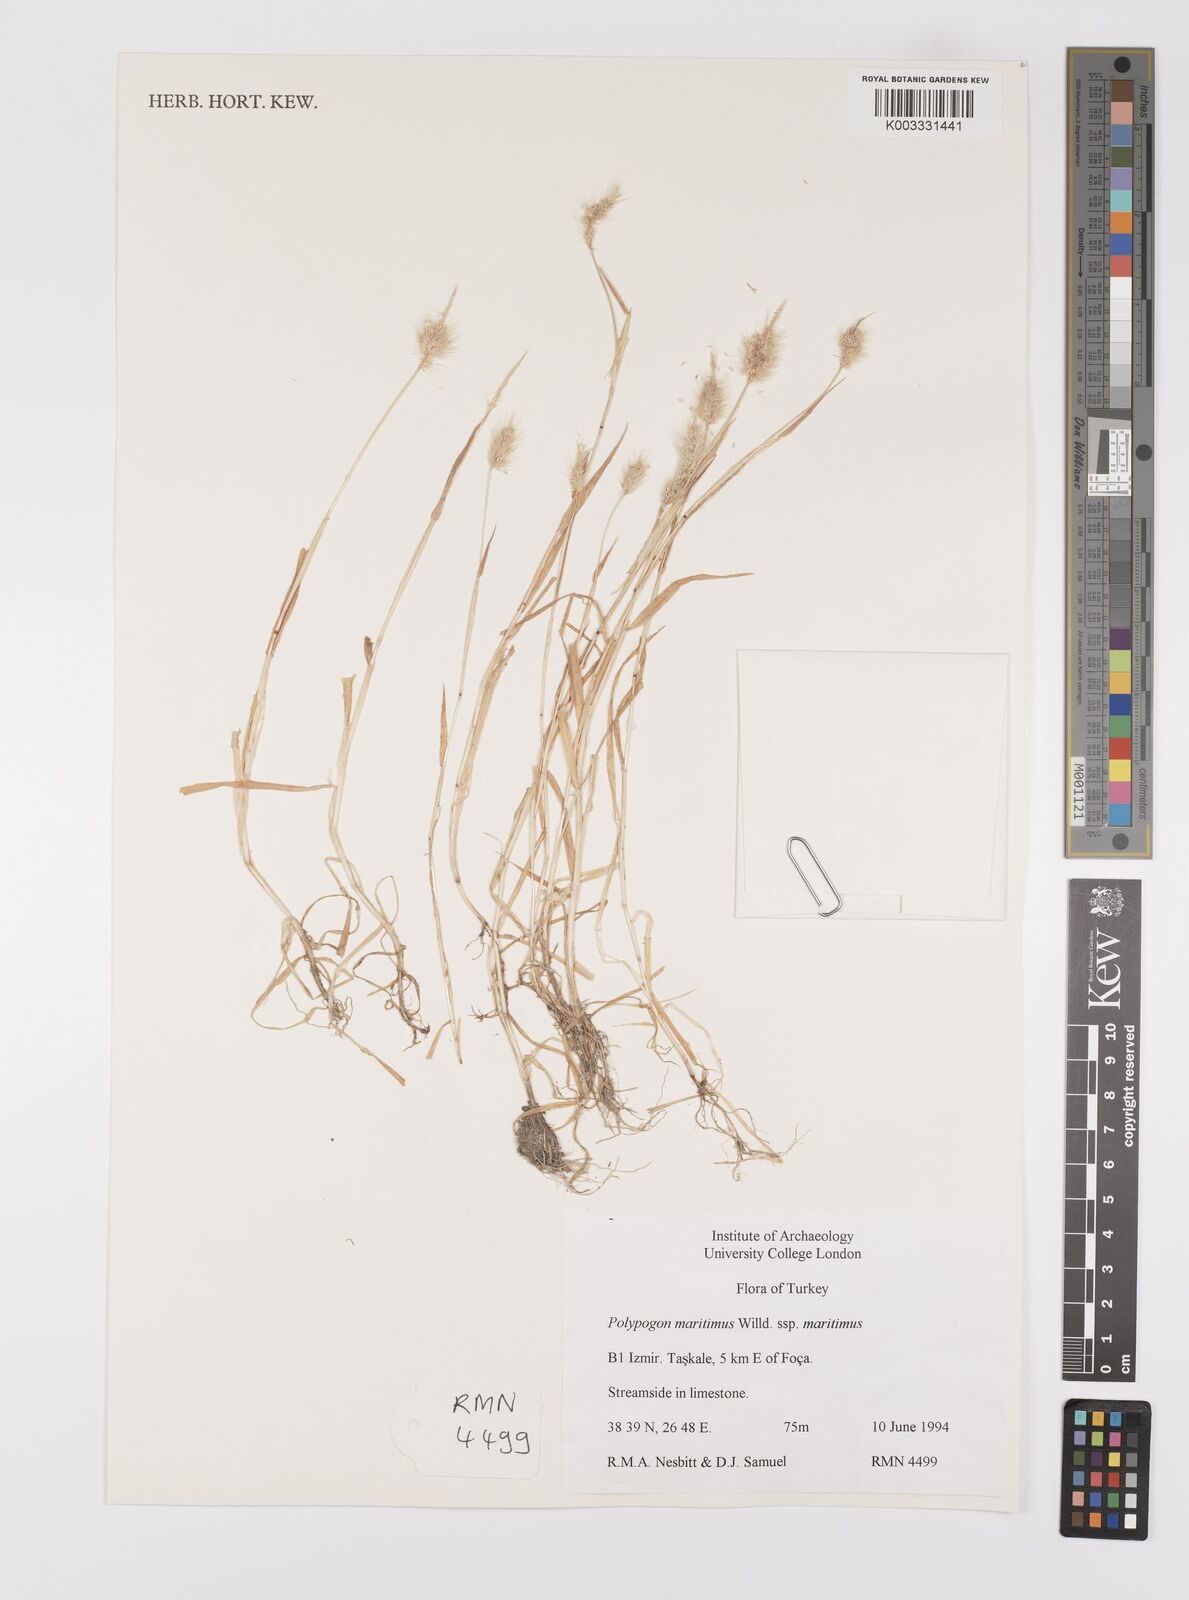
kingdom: Plantae
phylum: Tracheophyta
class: Liliopsida
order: Poales
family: Poaceae
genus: Polypogon
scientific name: Polypogon maritimus
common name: Mediterranean rabbitsfoot grass
